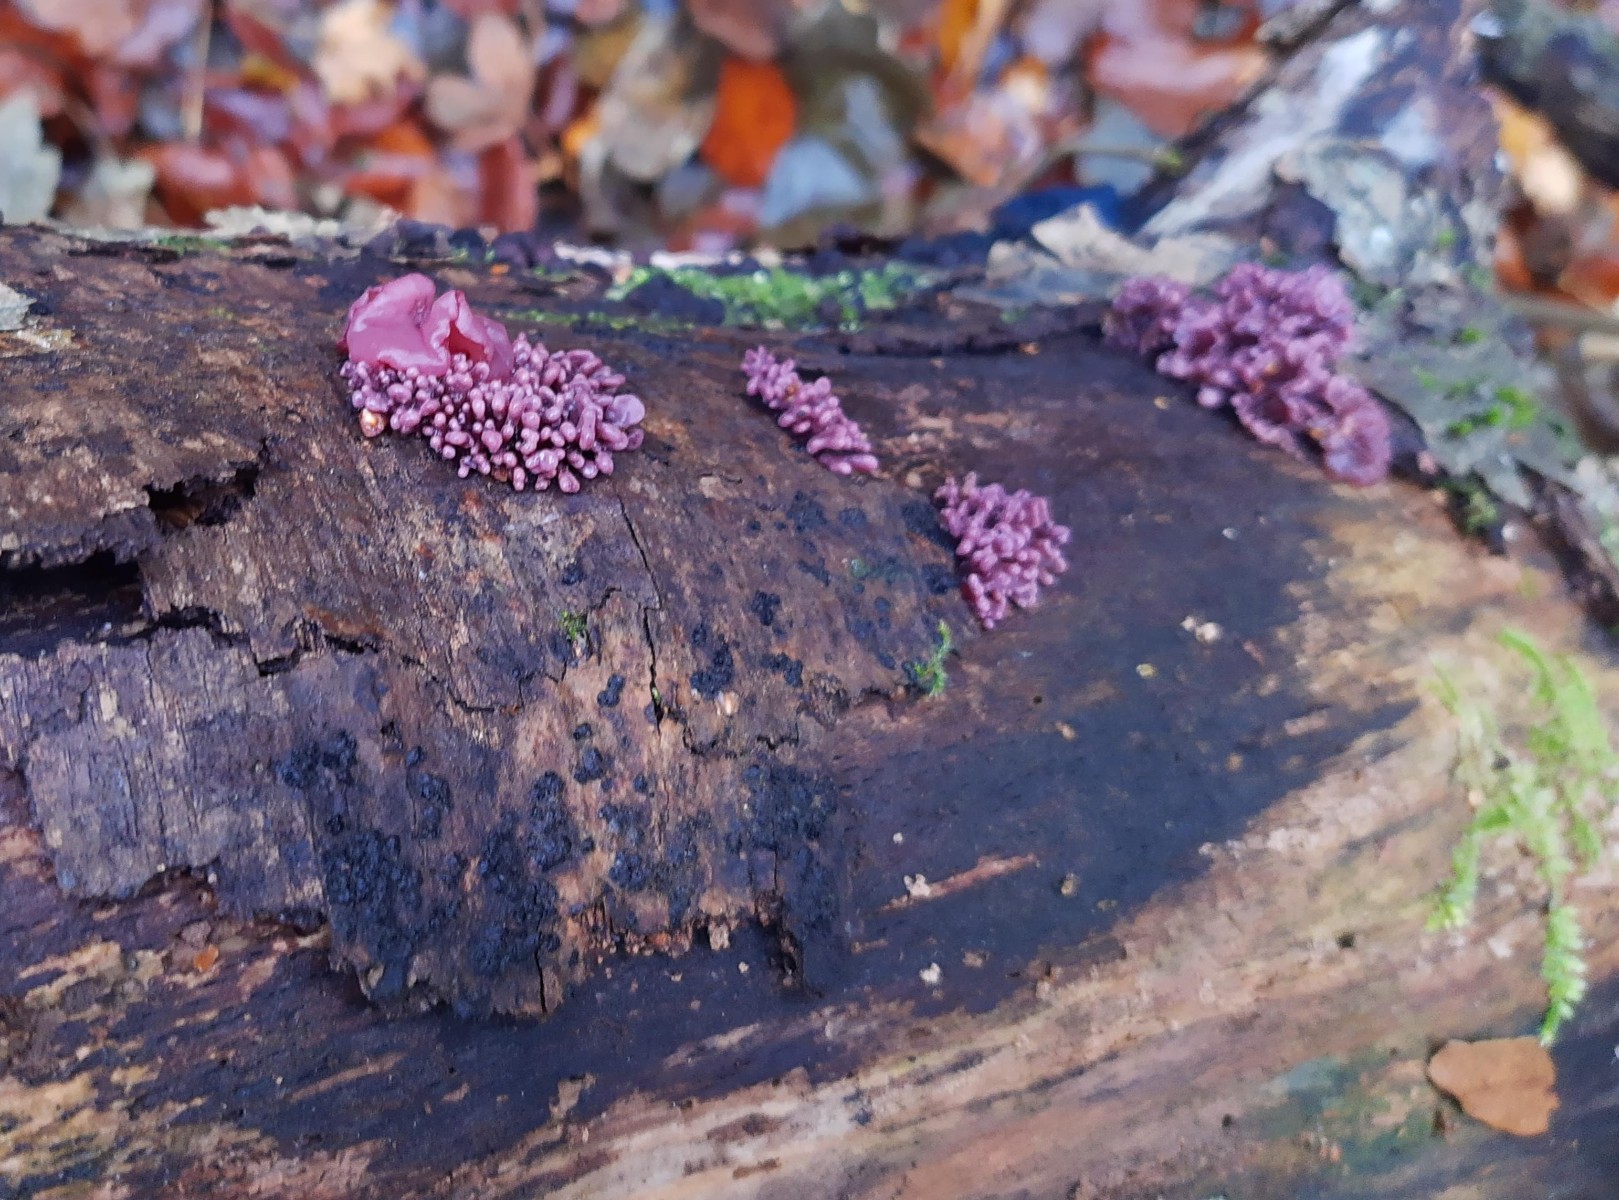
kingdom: Fungi
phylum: Ascomycota
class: Leotiomycetes
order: Helotiales
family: Gelatinodiscaceae
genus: Ascocoryne
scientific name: Ascocoryne sarcoides
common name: rødlilla sejskive
